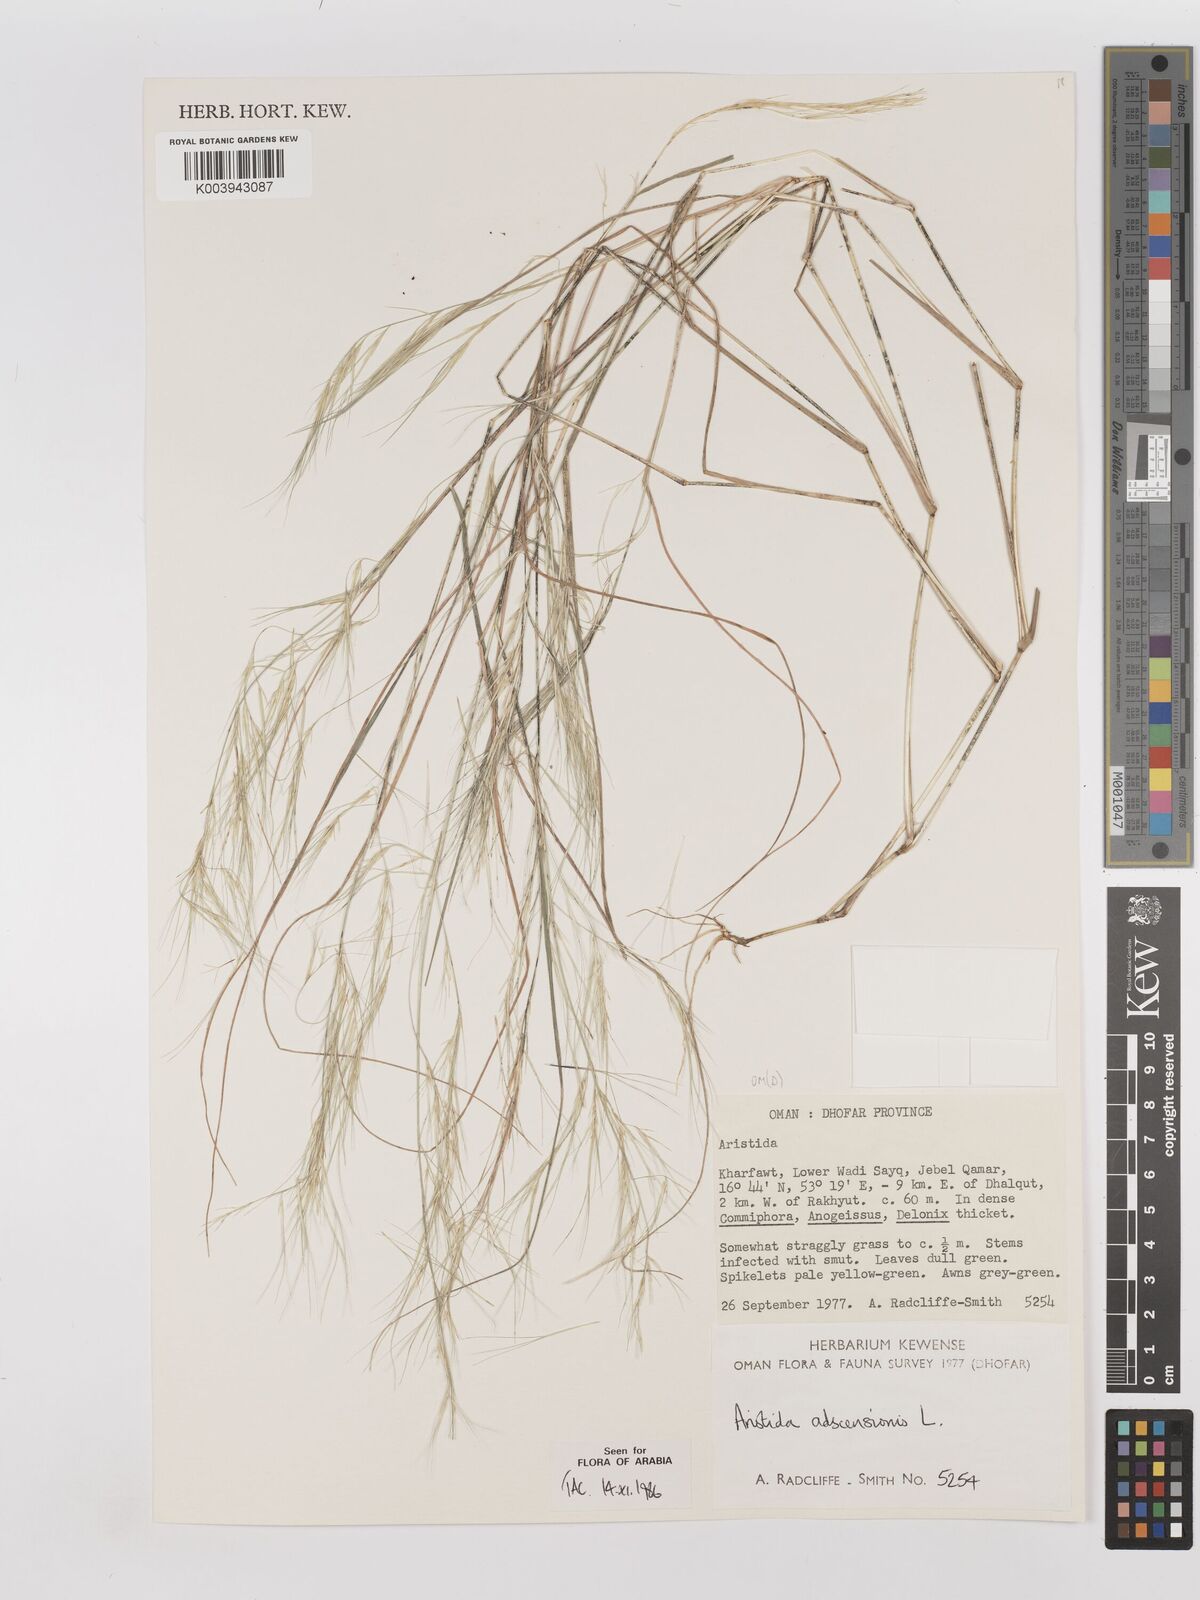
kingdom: Plantae
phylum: Tracheophyta
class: Liliopsida
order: Poales
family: Poaceae
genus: Aristida
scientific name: Aristida adscensionis
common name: Sixweeks threeawn
